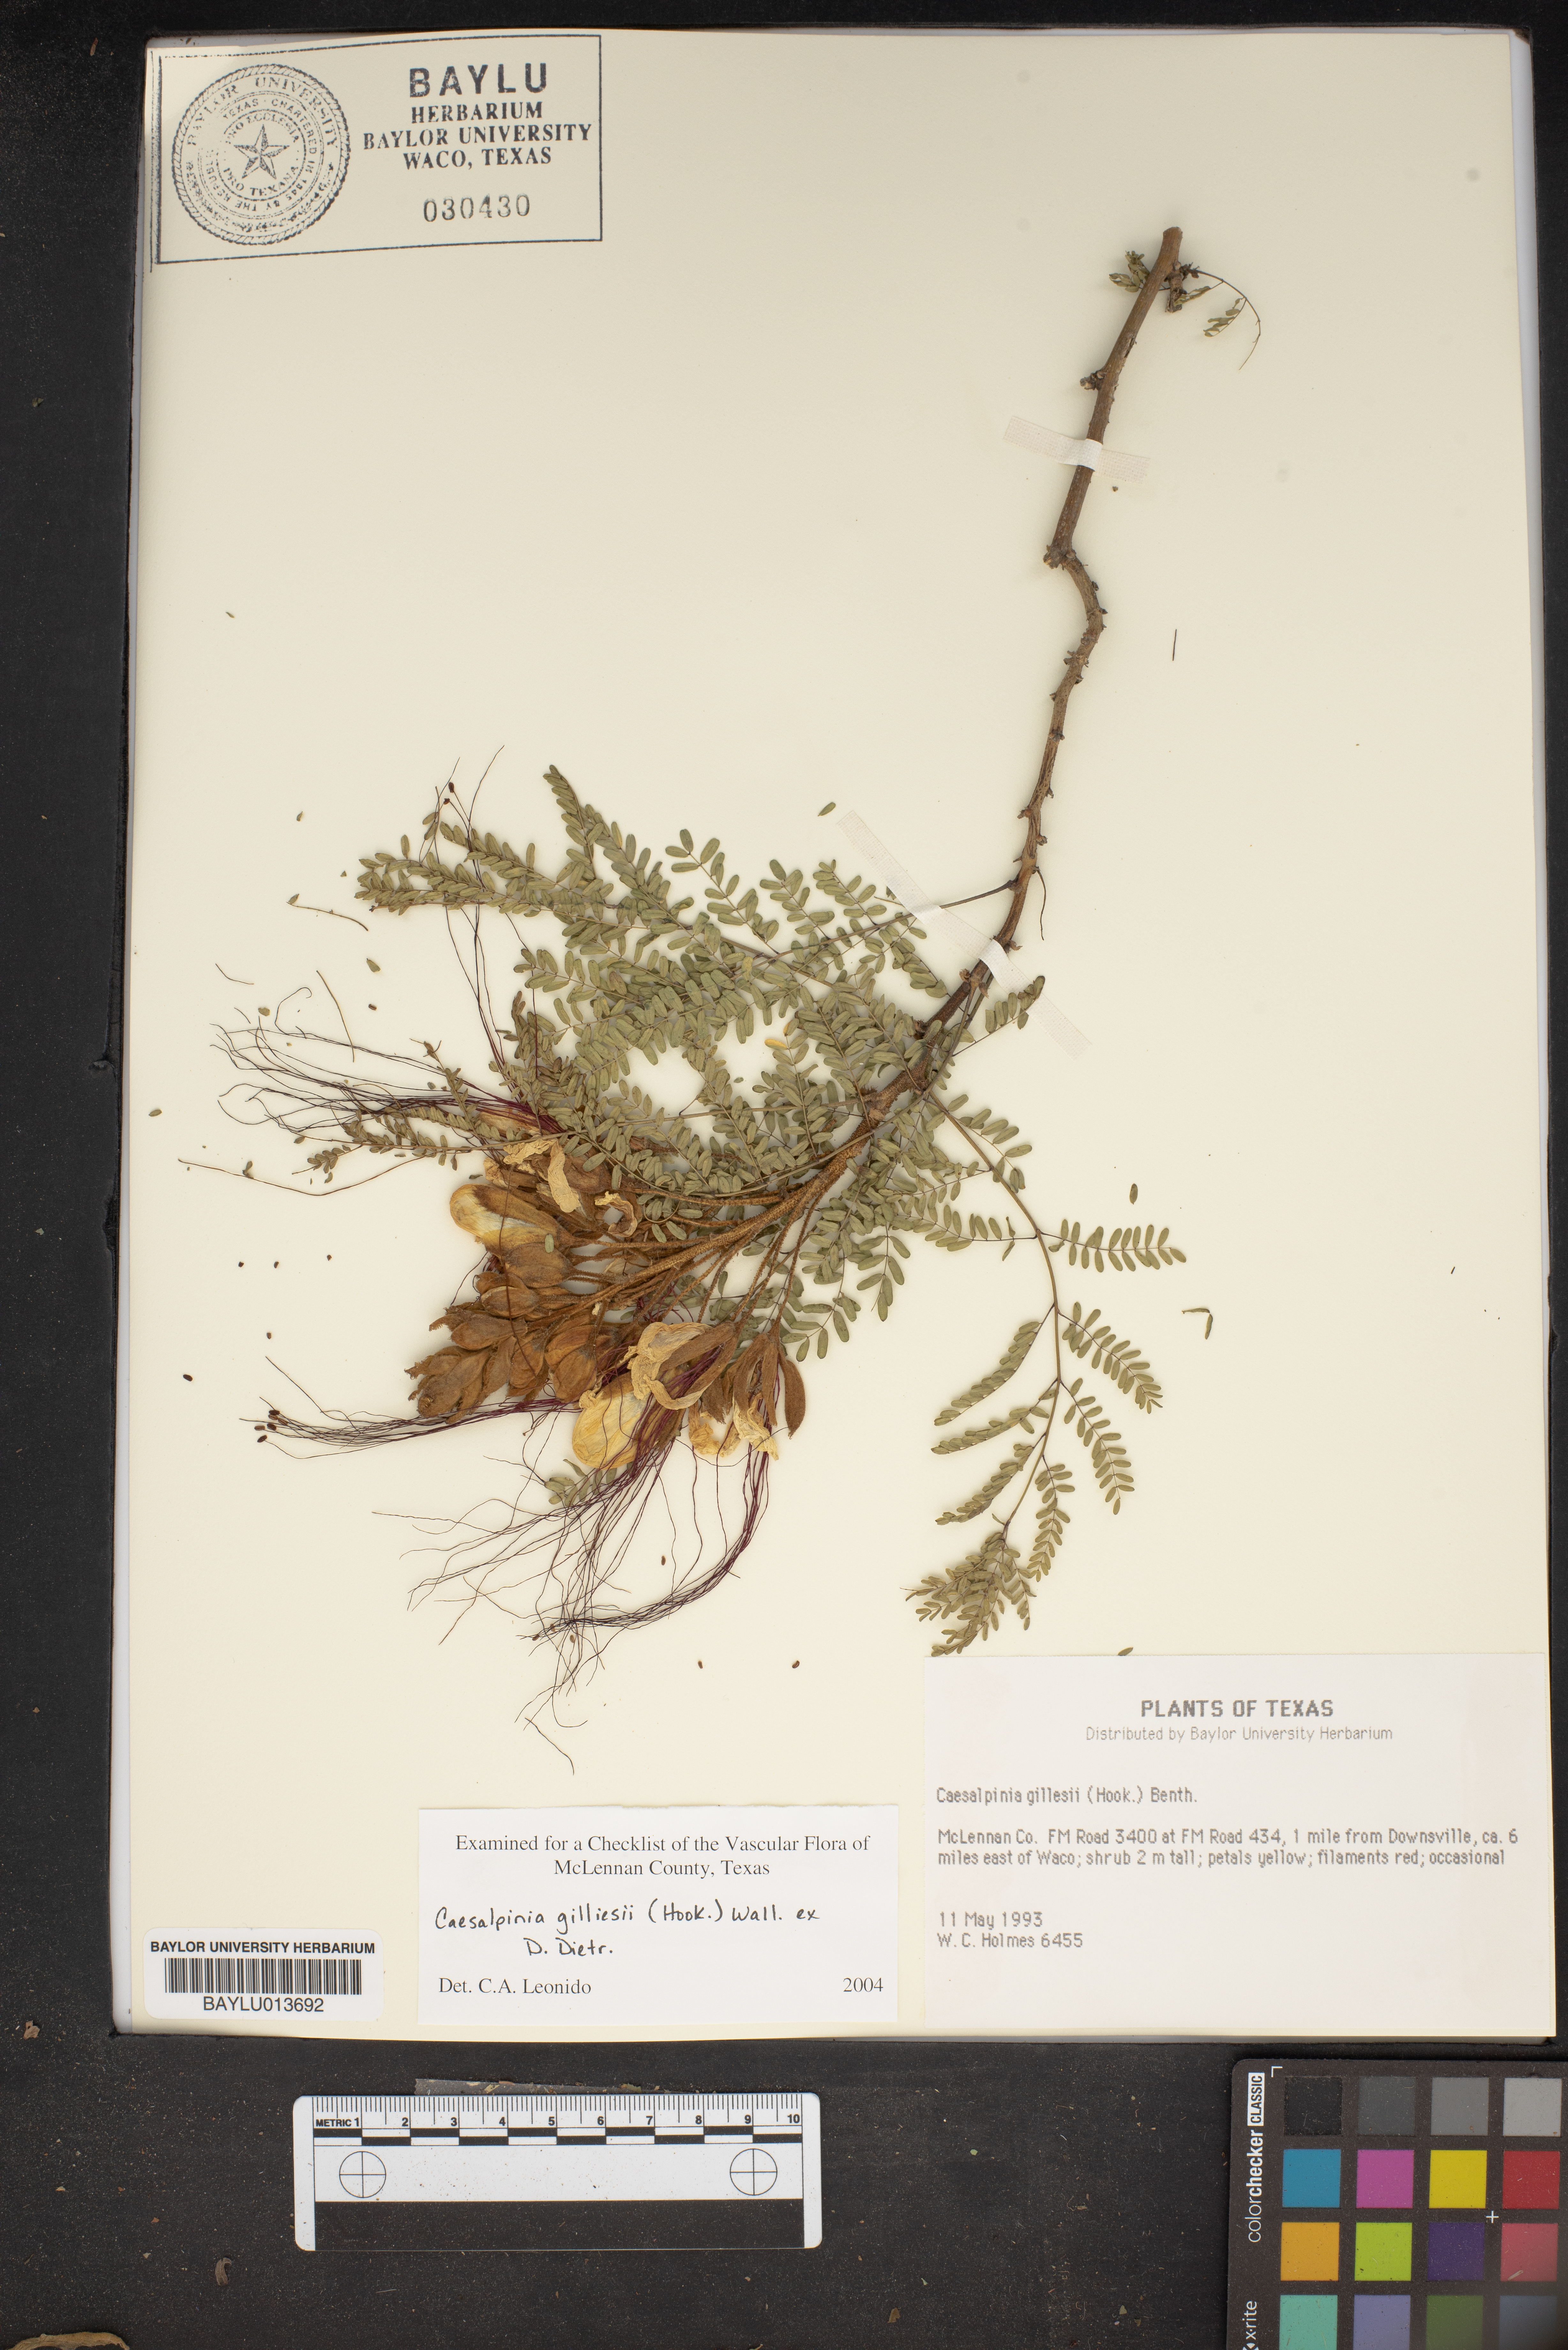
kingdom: Plantae
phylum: Tracheophyta
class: Magnoliopsida
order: Fabales
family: Fabaceae
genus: Erythrostemon
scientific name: Erythrostemon gilliesii
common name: Bird-of-paradise shrub
